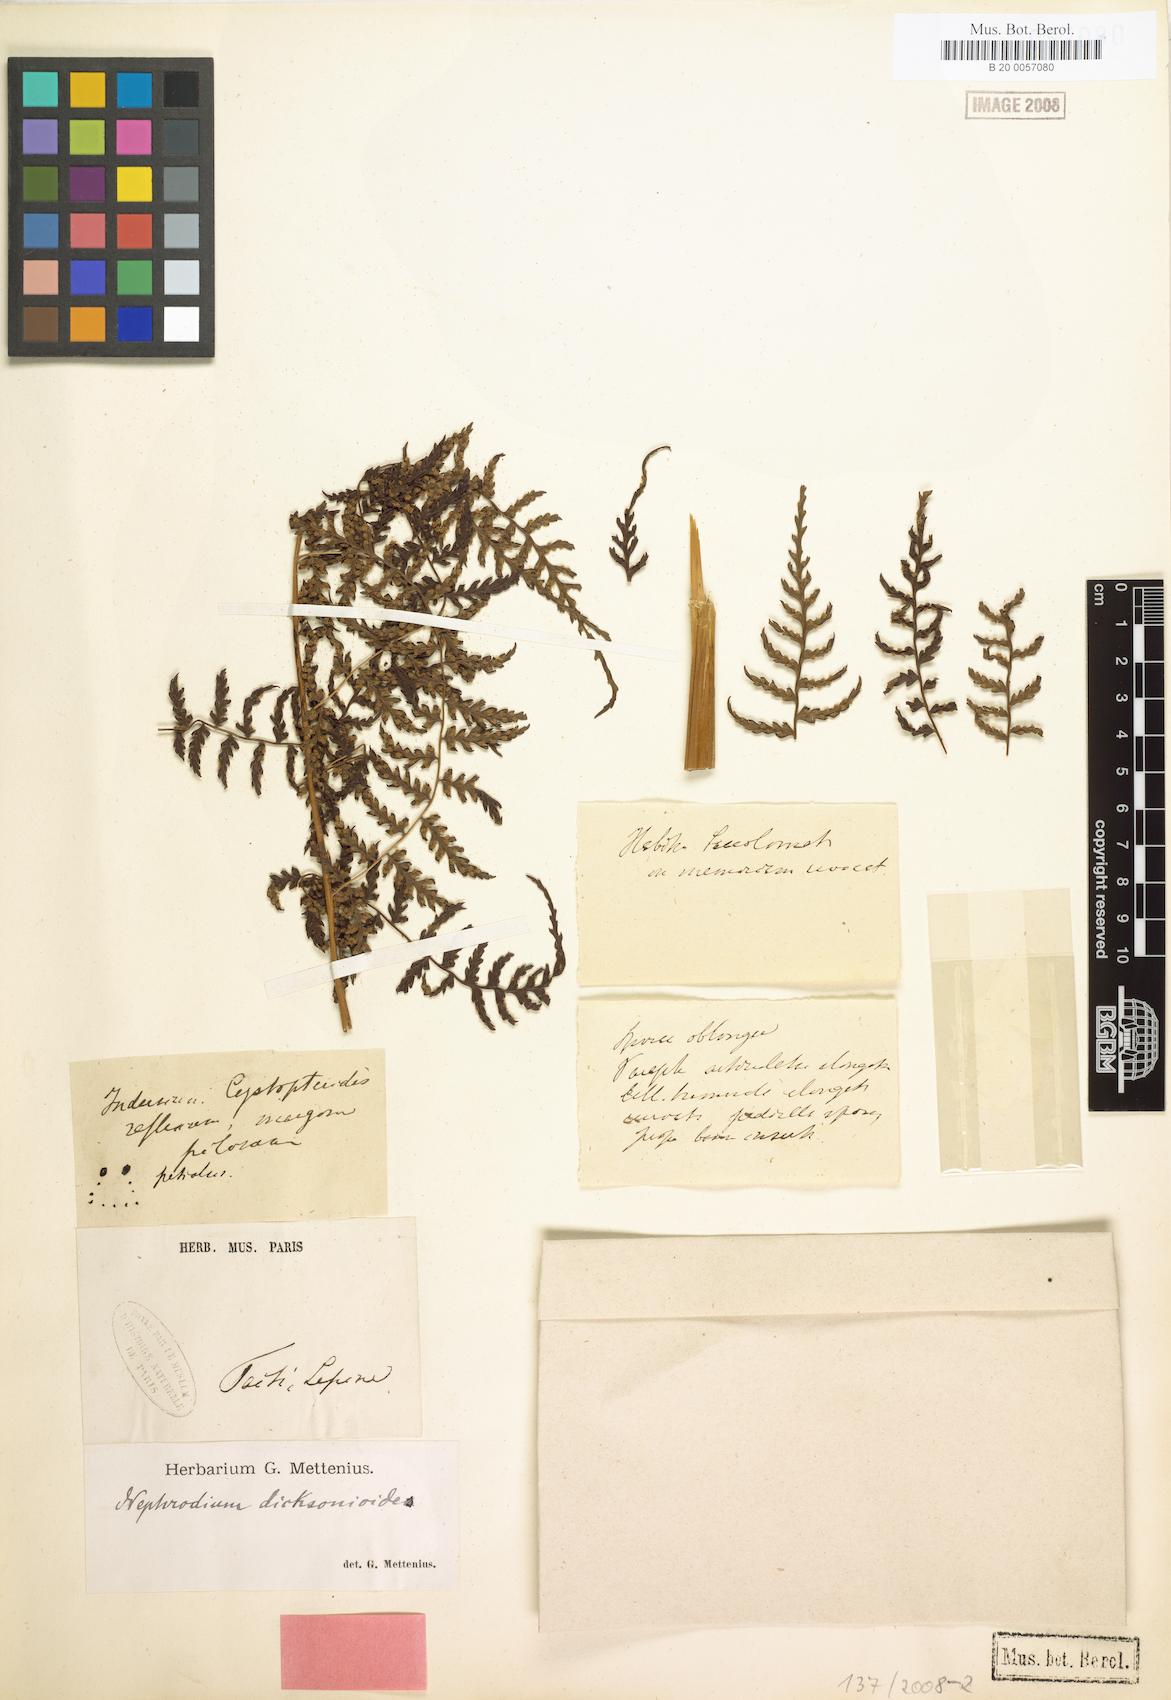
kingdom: Plantae
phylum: Tracheophyta
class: Polypodiopsida
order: Polypodiales
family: Dryopteridaceae
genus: Dryopteris
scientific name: Dryopteris dicksonioides
